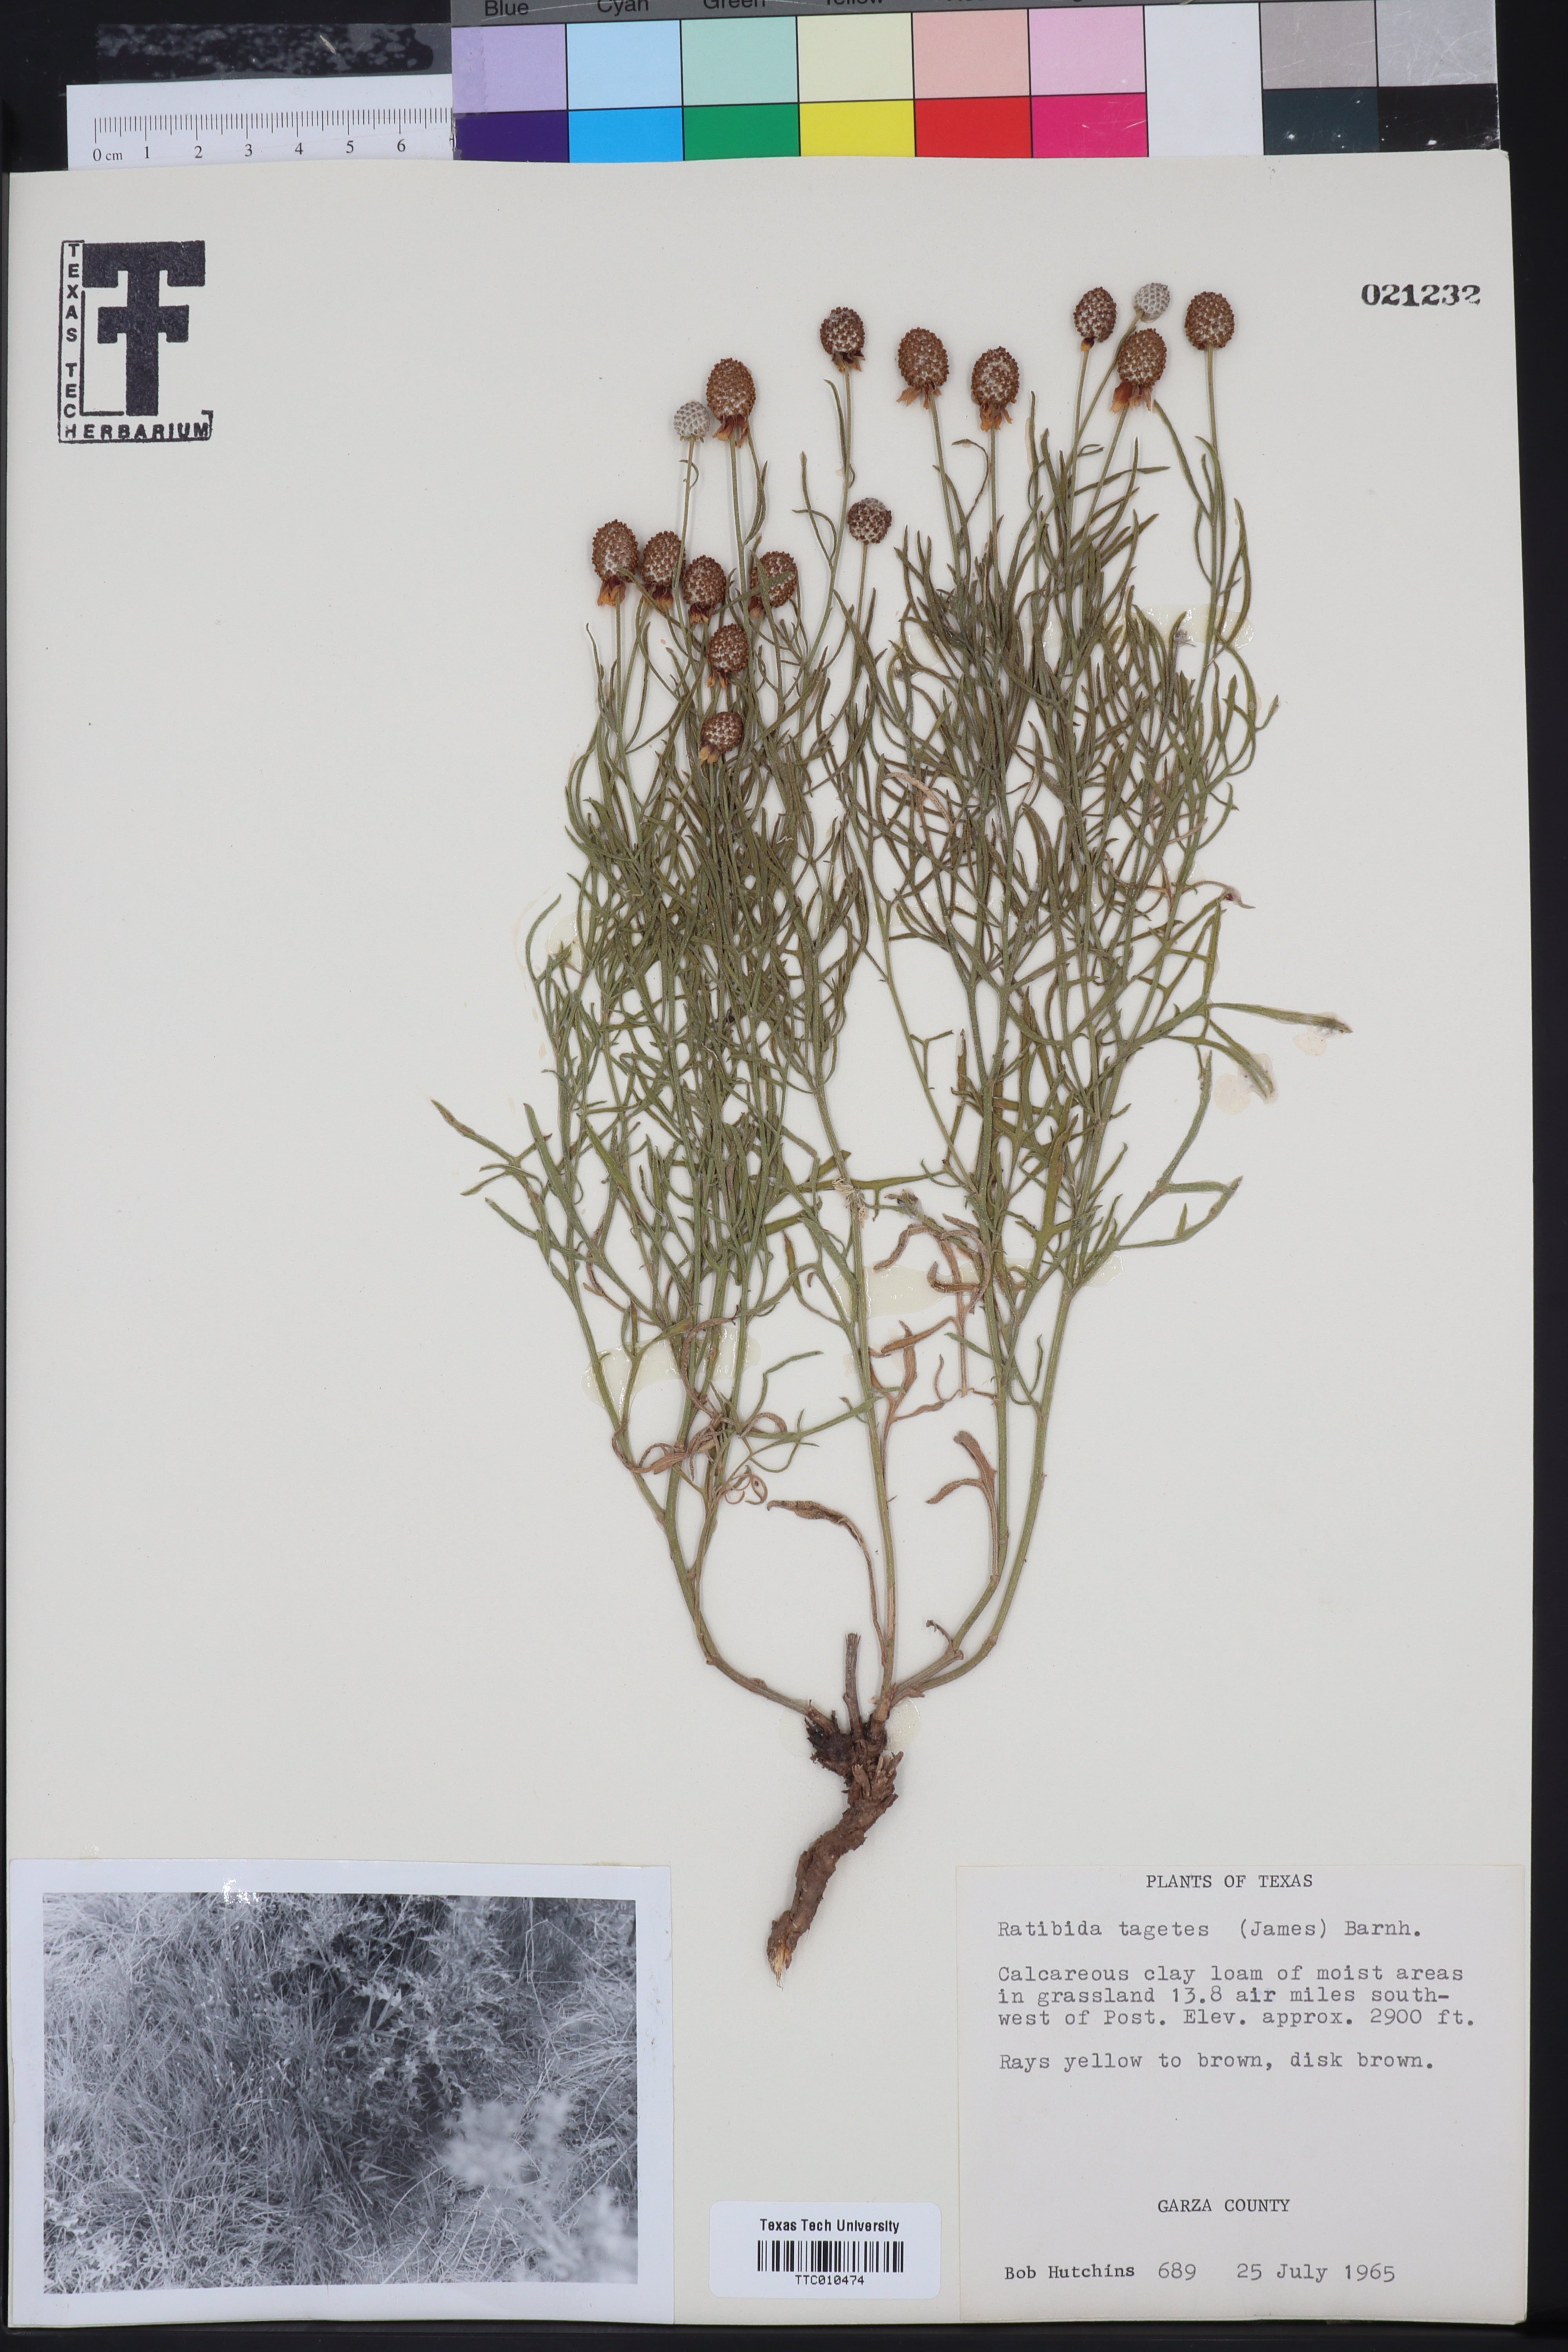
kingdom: Plantae
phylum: Tracheophyta
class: Magnoliopsida
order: Asterales
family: Asteraceae
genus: Ratibida
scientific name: Ratibida tagetes
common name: Green mexican-hat
